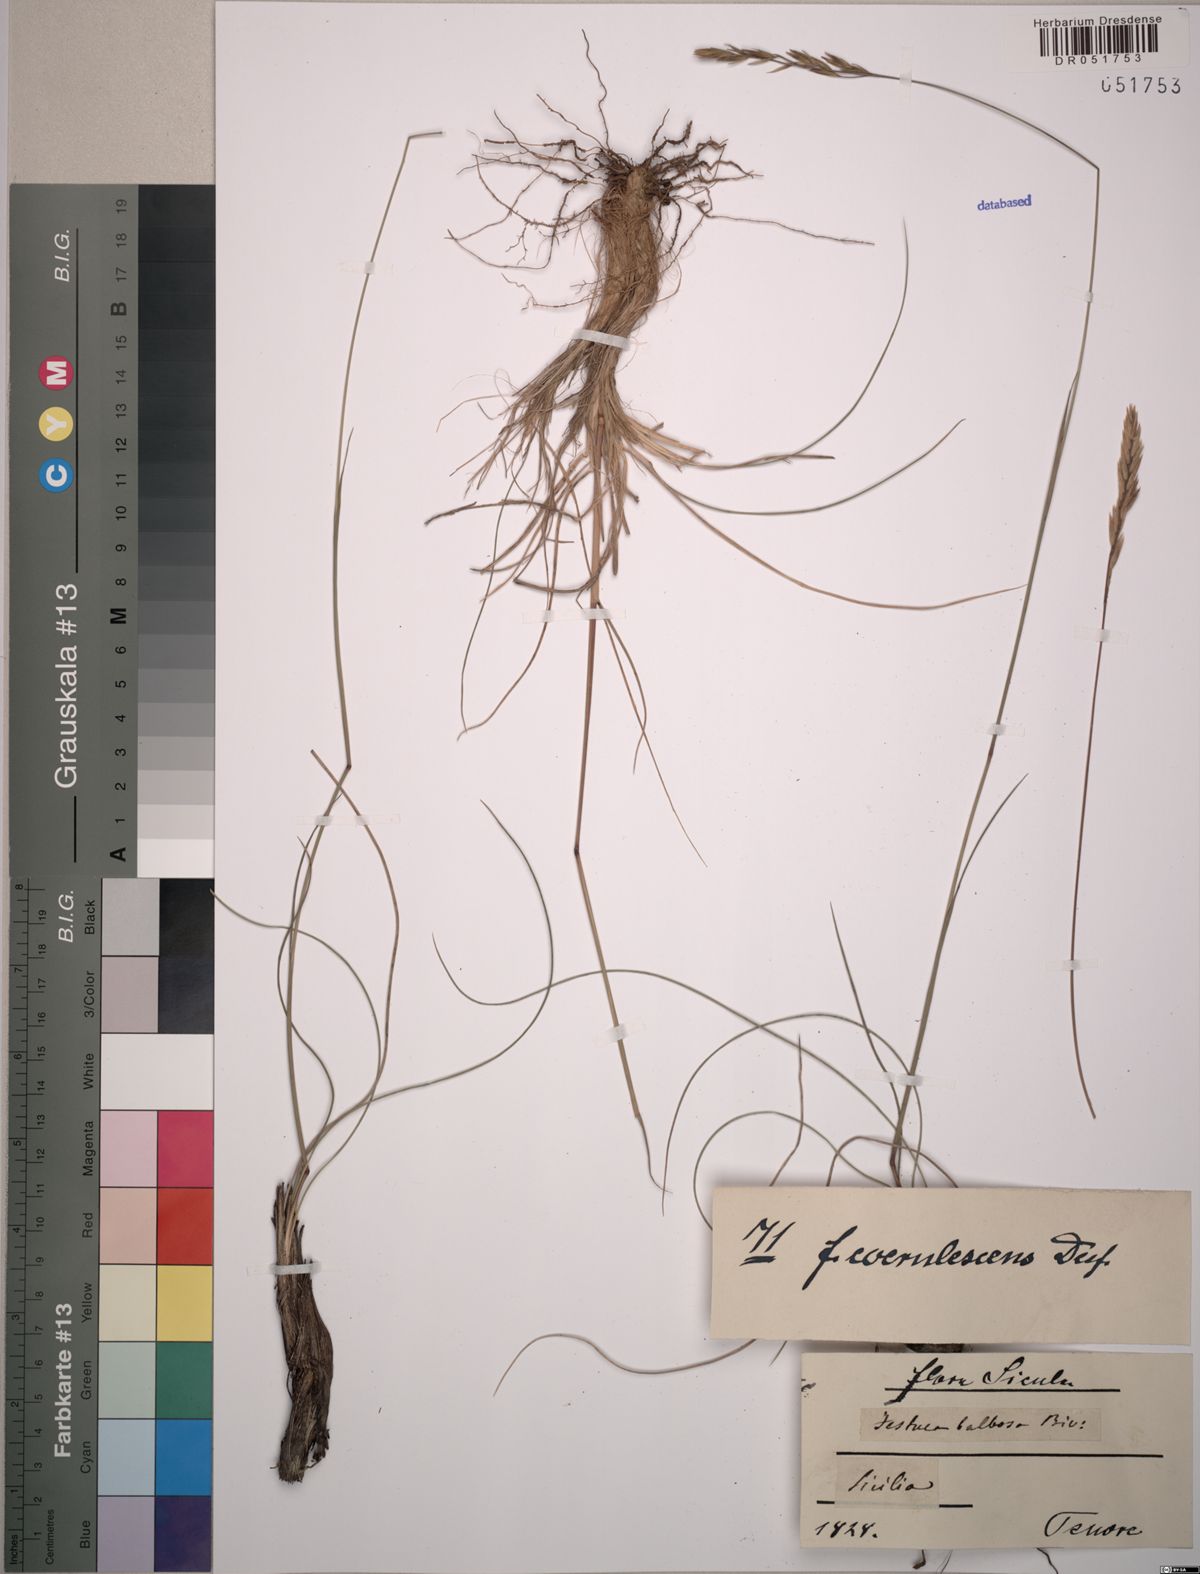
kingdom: Plantae
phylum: Tracheophyta
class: Liliopsida
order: Poales
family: Poaceae
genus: Patzkea
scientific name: Patzkea coerulescens
